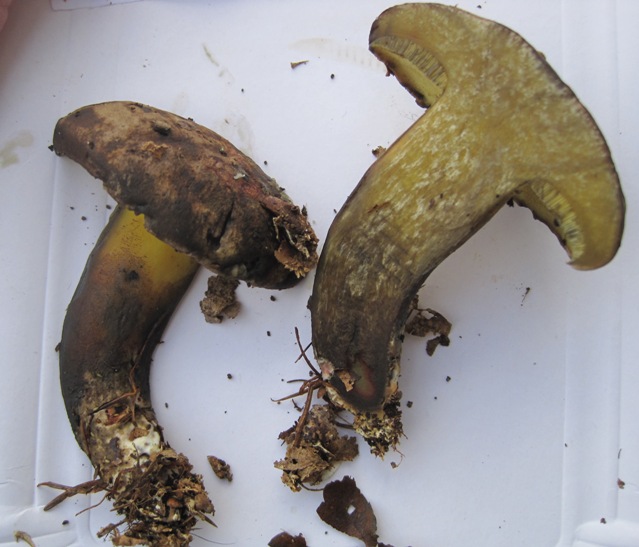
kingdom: Fungi
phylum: Basidiomycota
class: Agaricomycetes
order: Boletales
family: Boletaceae
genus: Cyanoboletus
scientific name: Cyanoboletus pulverulentus
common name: sortblånende rørhat
